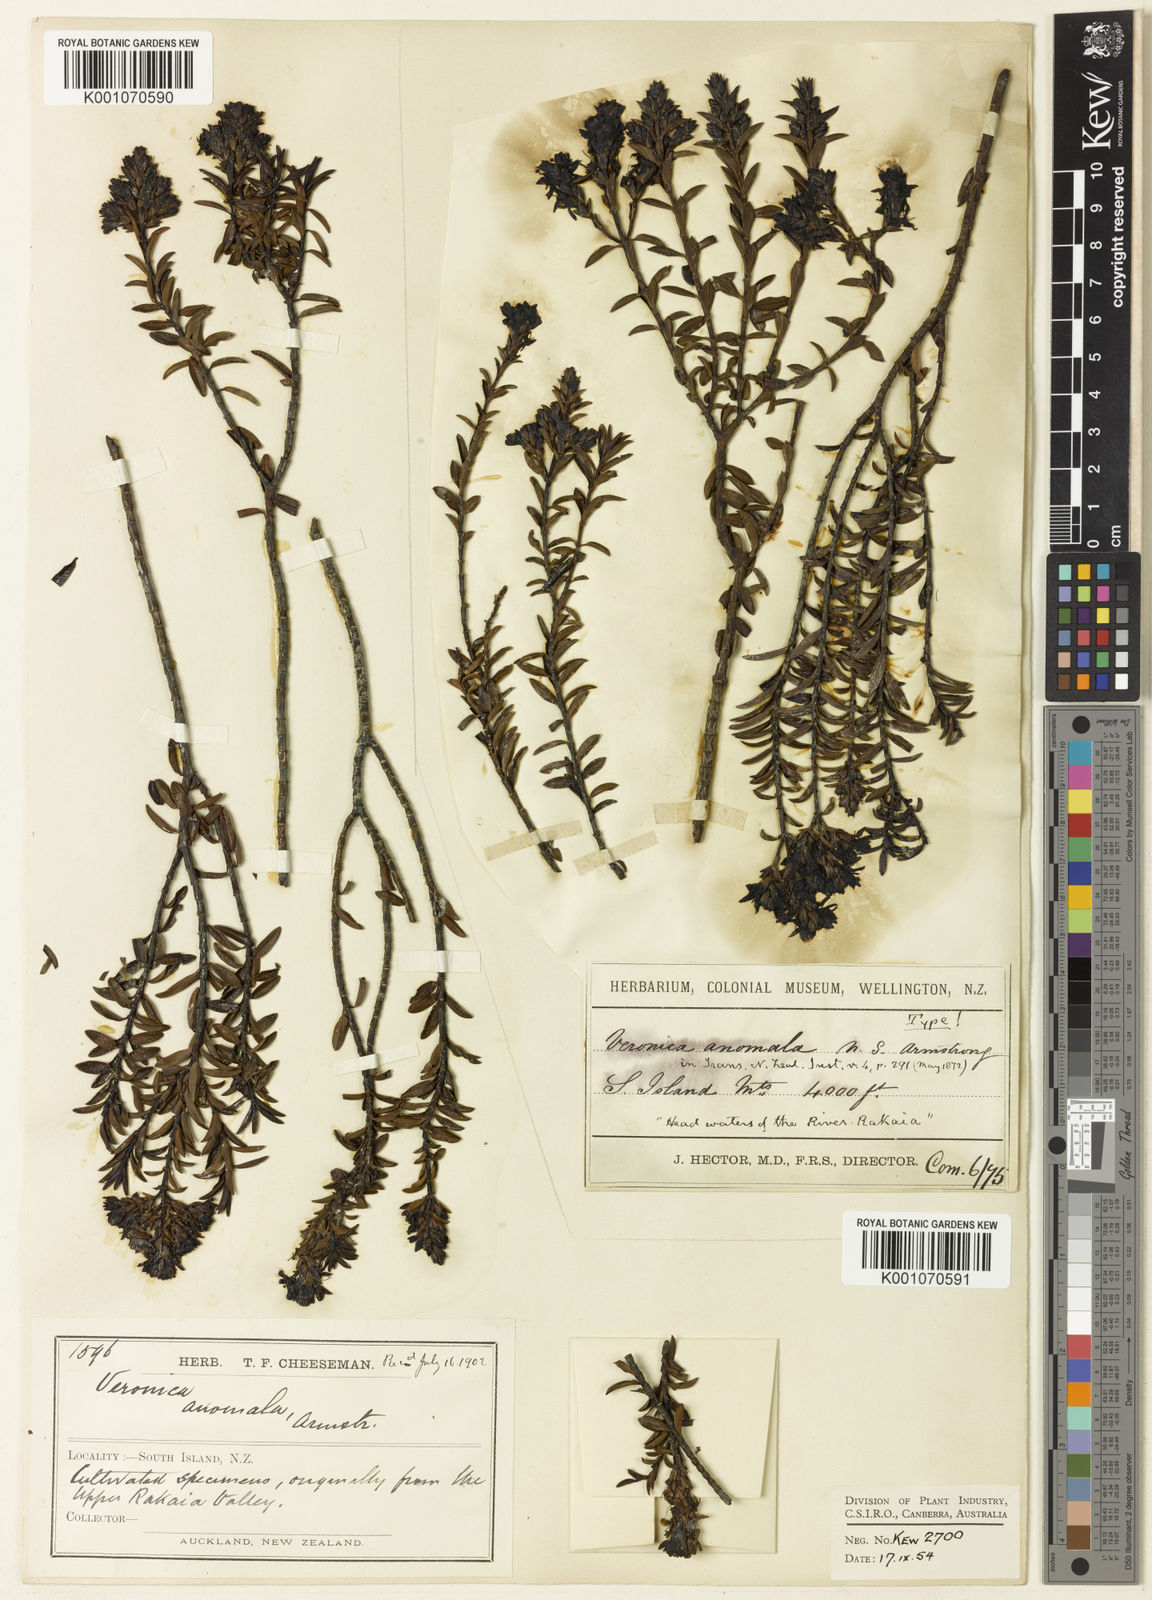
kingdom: Plantae
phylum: Tracheophyta
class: Magnoliopsida
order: Lamiales
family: Plantaginaceae
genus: Veronica
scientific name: Veronica odora
